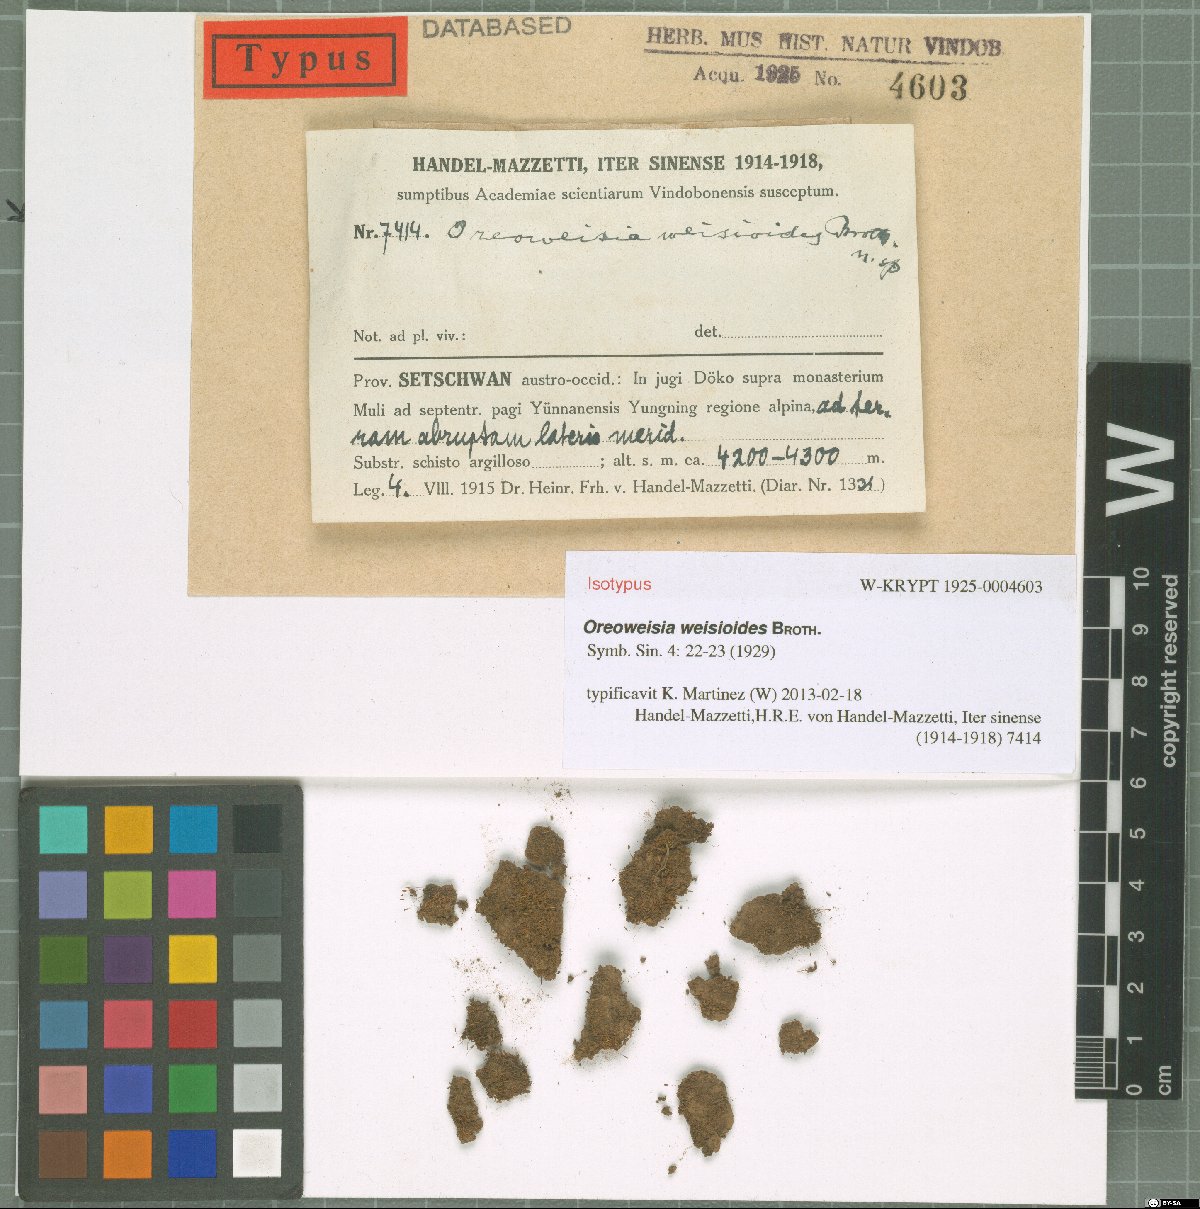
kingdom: Plantae
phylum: Bryophyta
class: Bryopsida
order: Dicranales
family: Rhabdoweisiaceae
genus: Cynodontium
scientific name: Cynodontium weisioides
